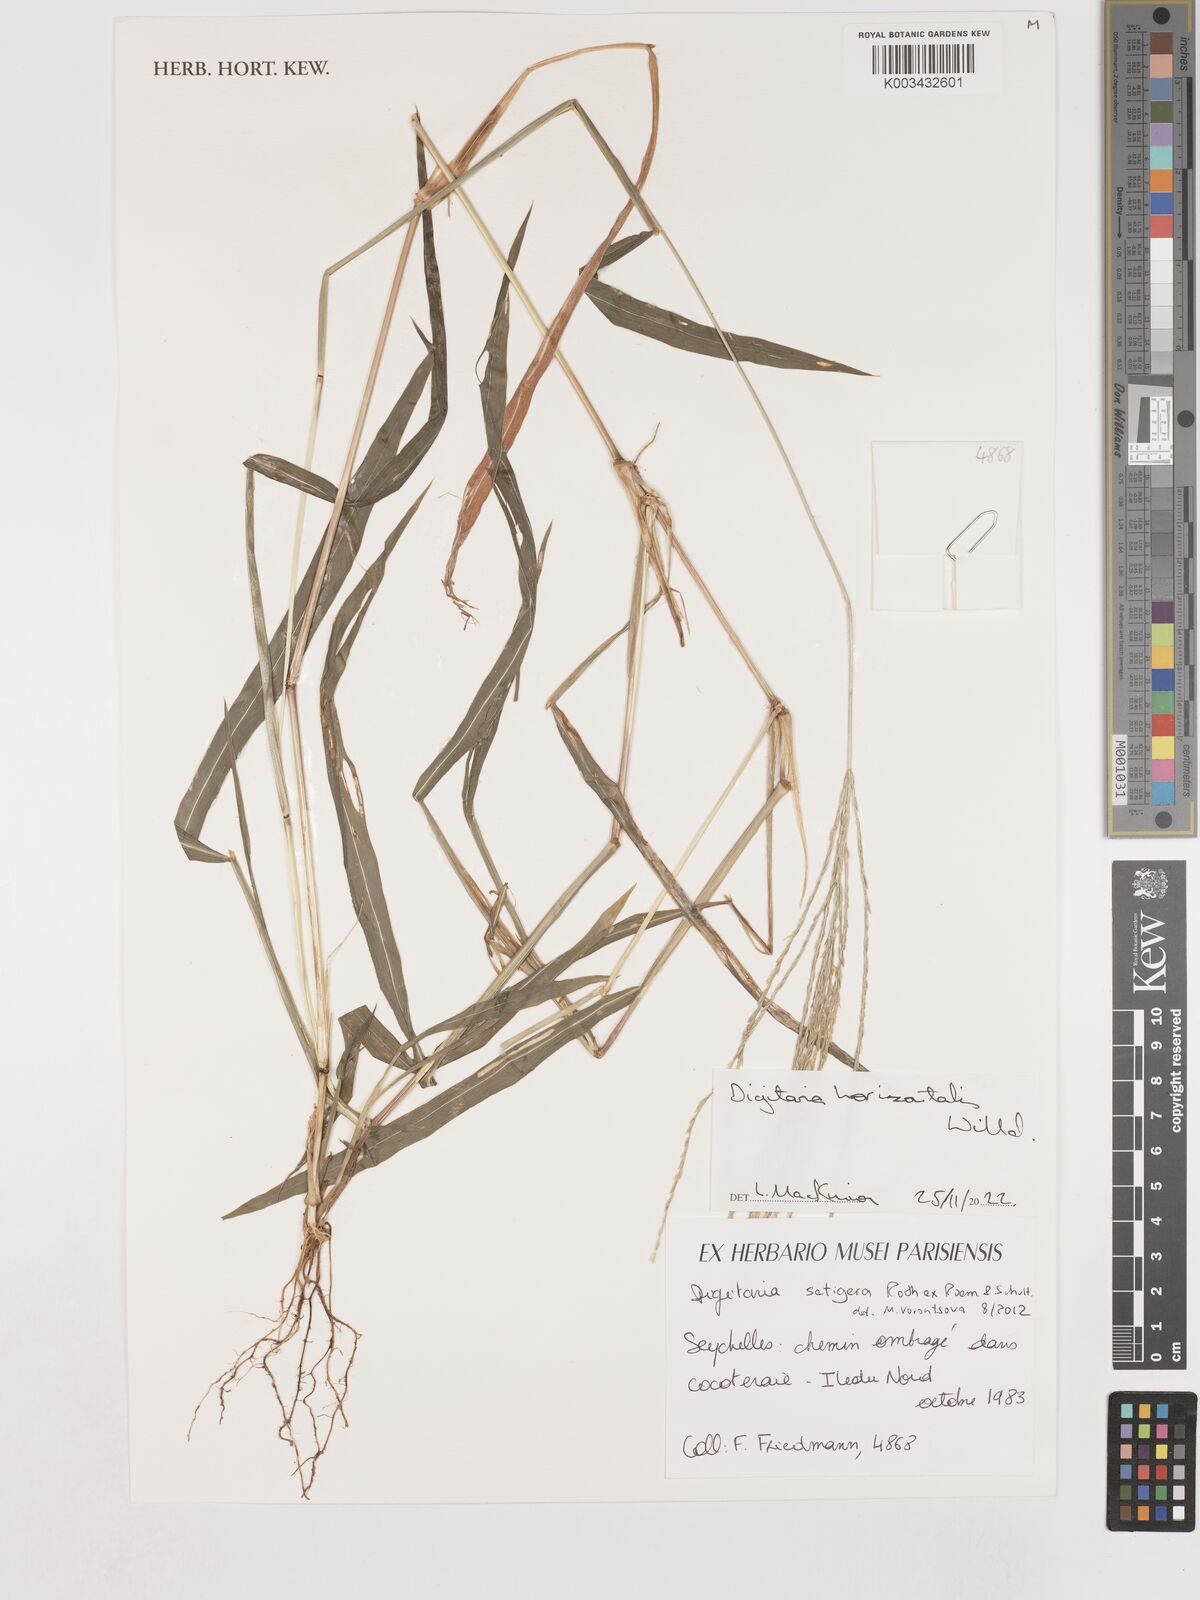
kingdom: Plantae
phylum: Tracheophyta
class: Liliopsida
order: Poales
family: Poaceae
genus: Digitaria
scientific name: Digitaria horizontalis
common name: Jamaican crabgrass
